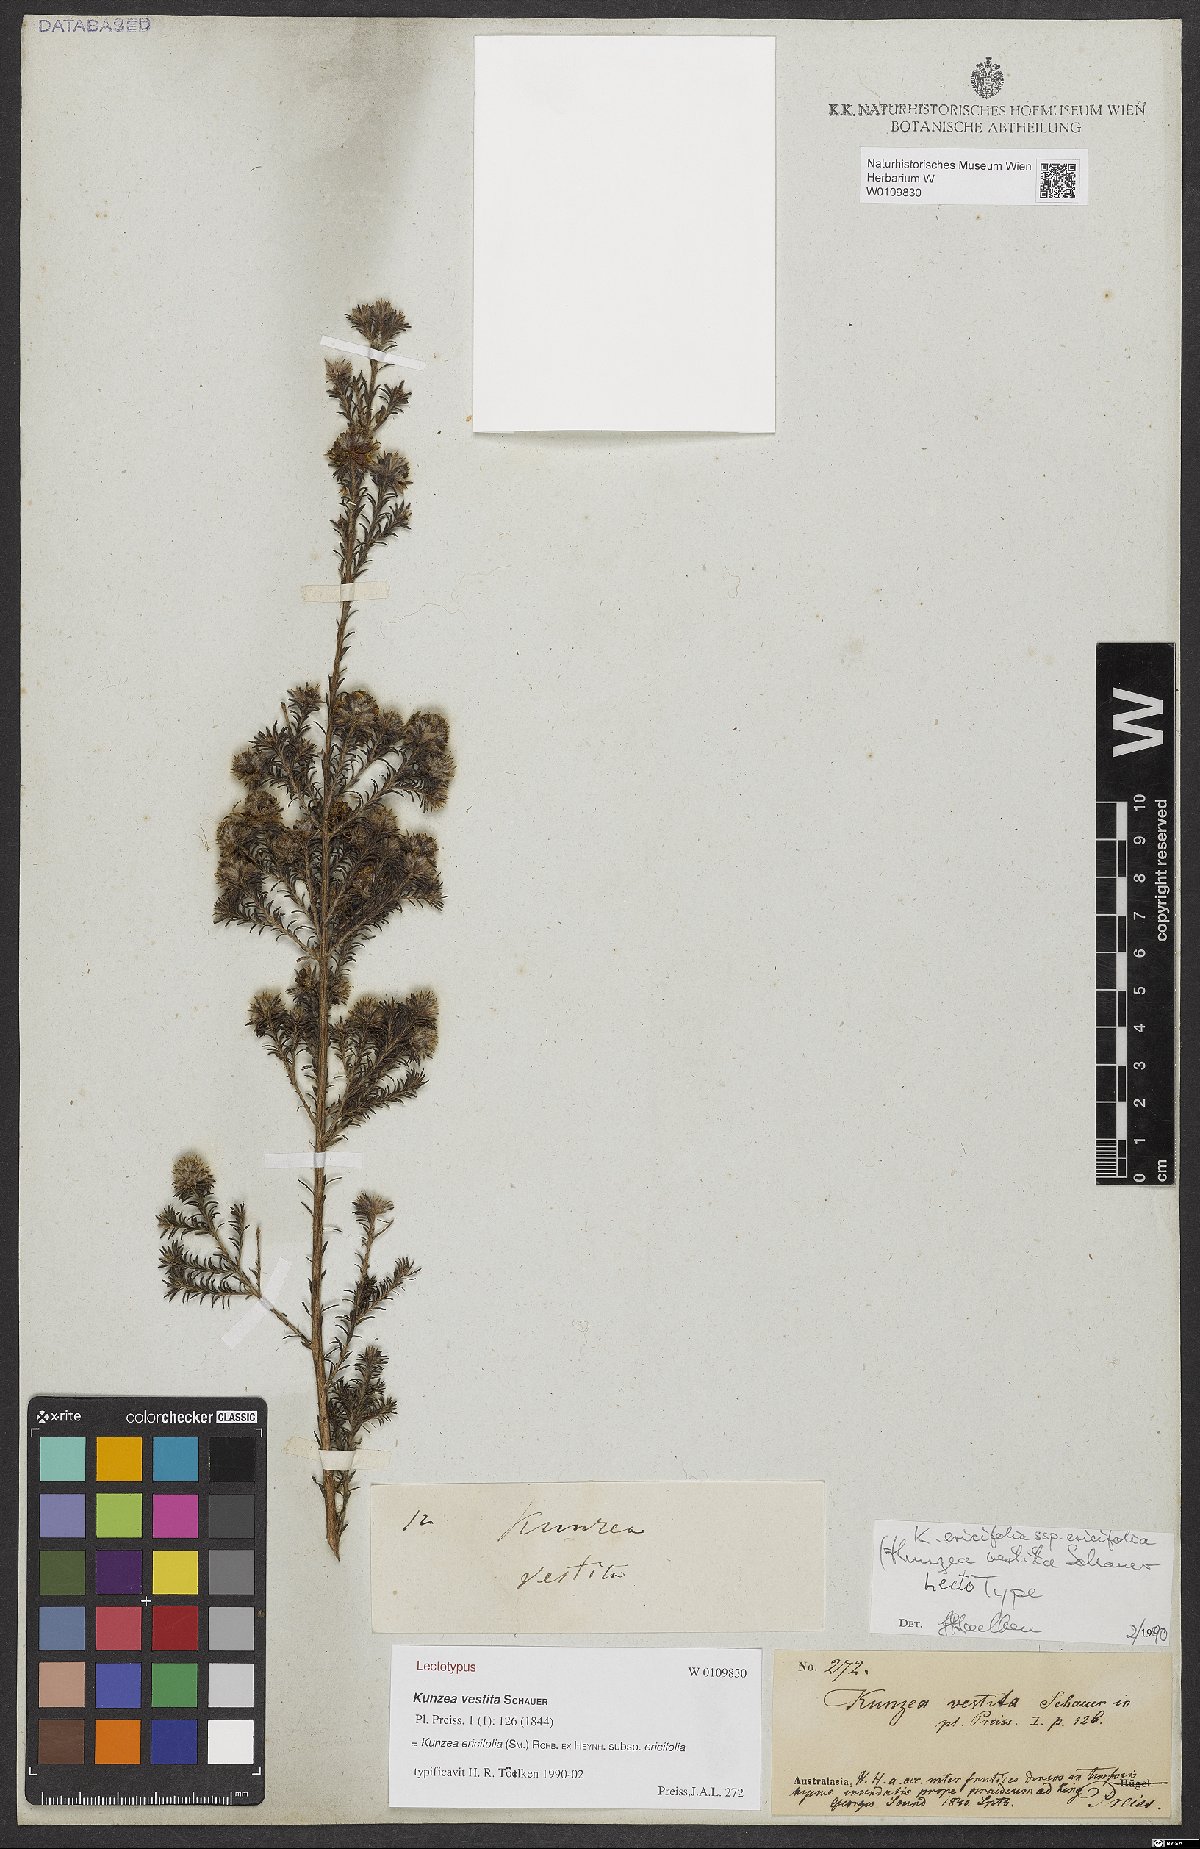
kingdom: Plantae
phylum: Tracheophyta
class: Magnoliopsida
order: Myrtales
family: Myrtaceae
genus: Kunzea
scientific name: Kunzea ericifolia
